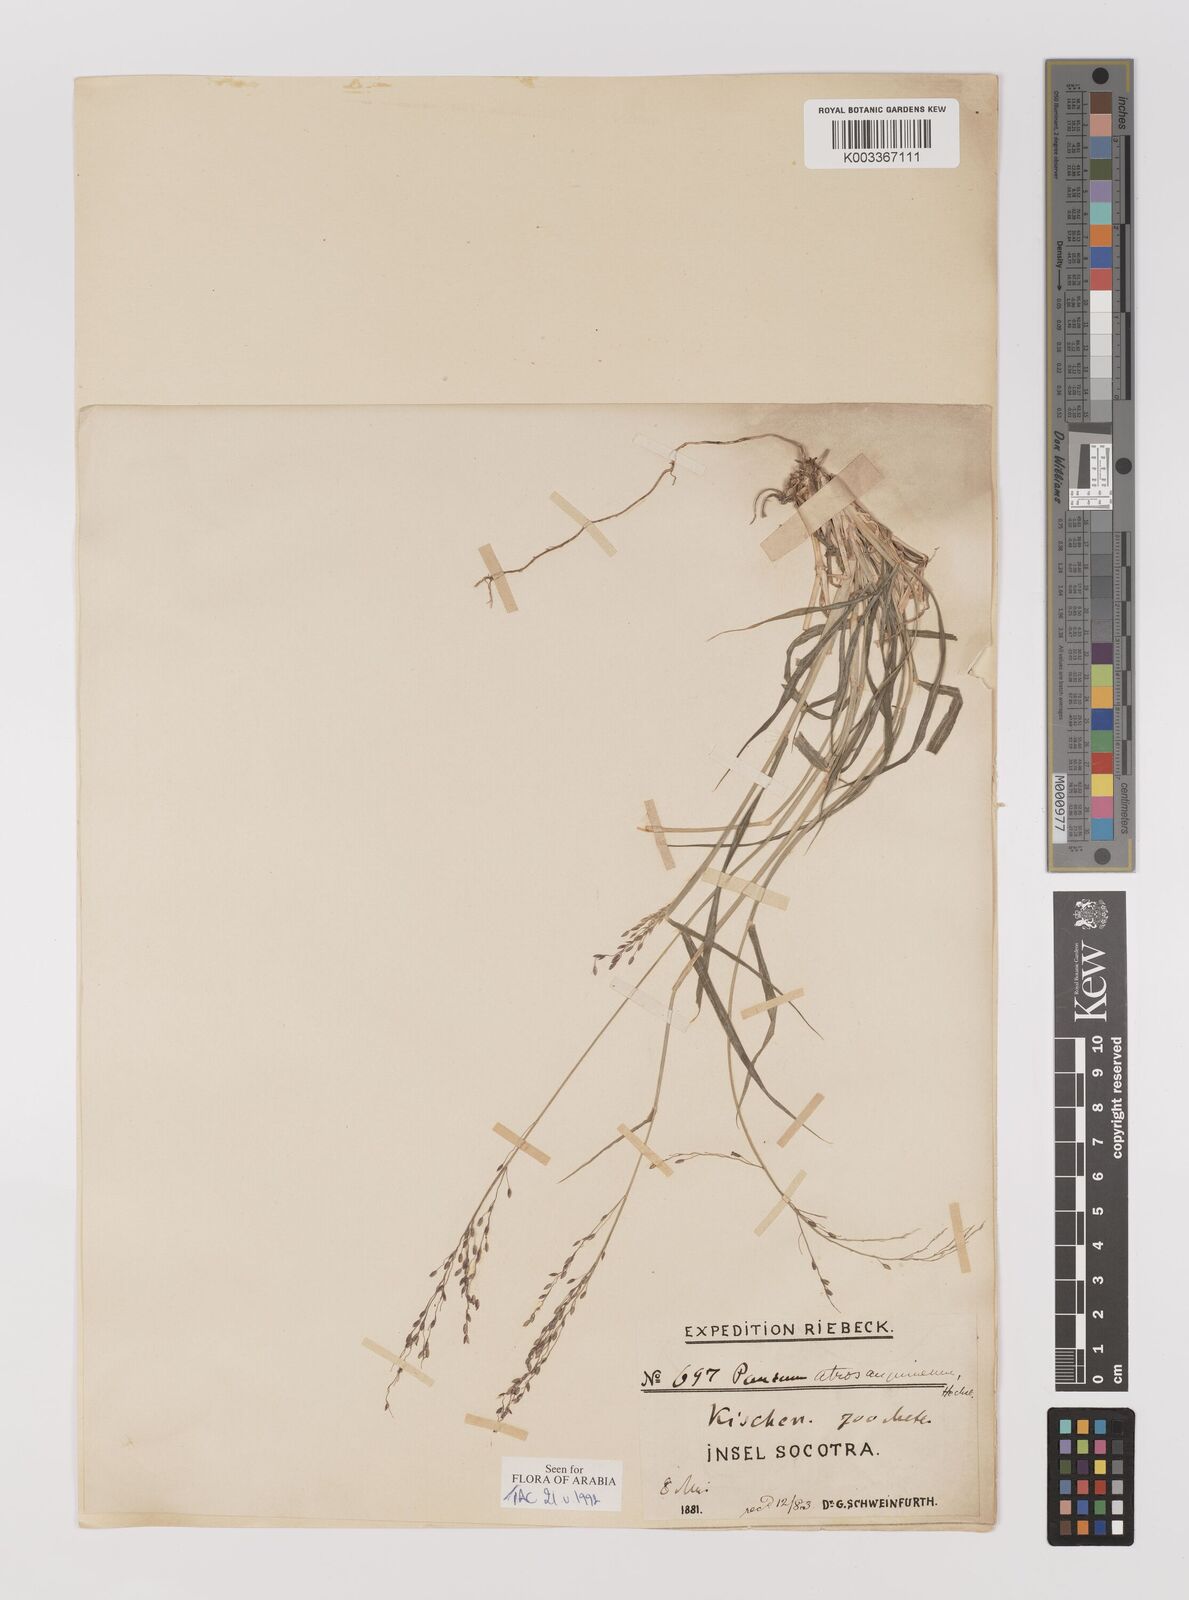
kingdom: Plantae
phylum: Tracheophyta
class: Liliopsida
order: Poales
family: Poaceae
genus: Megathyrsus
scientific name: Megathyrsus maximus
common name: Guineagrass
